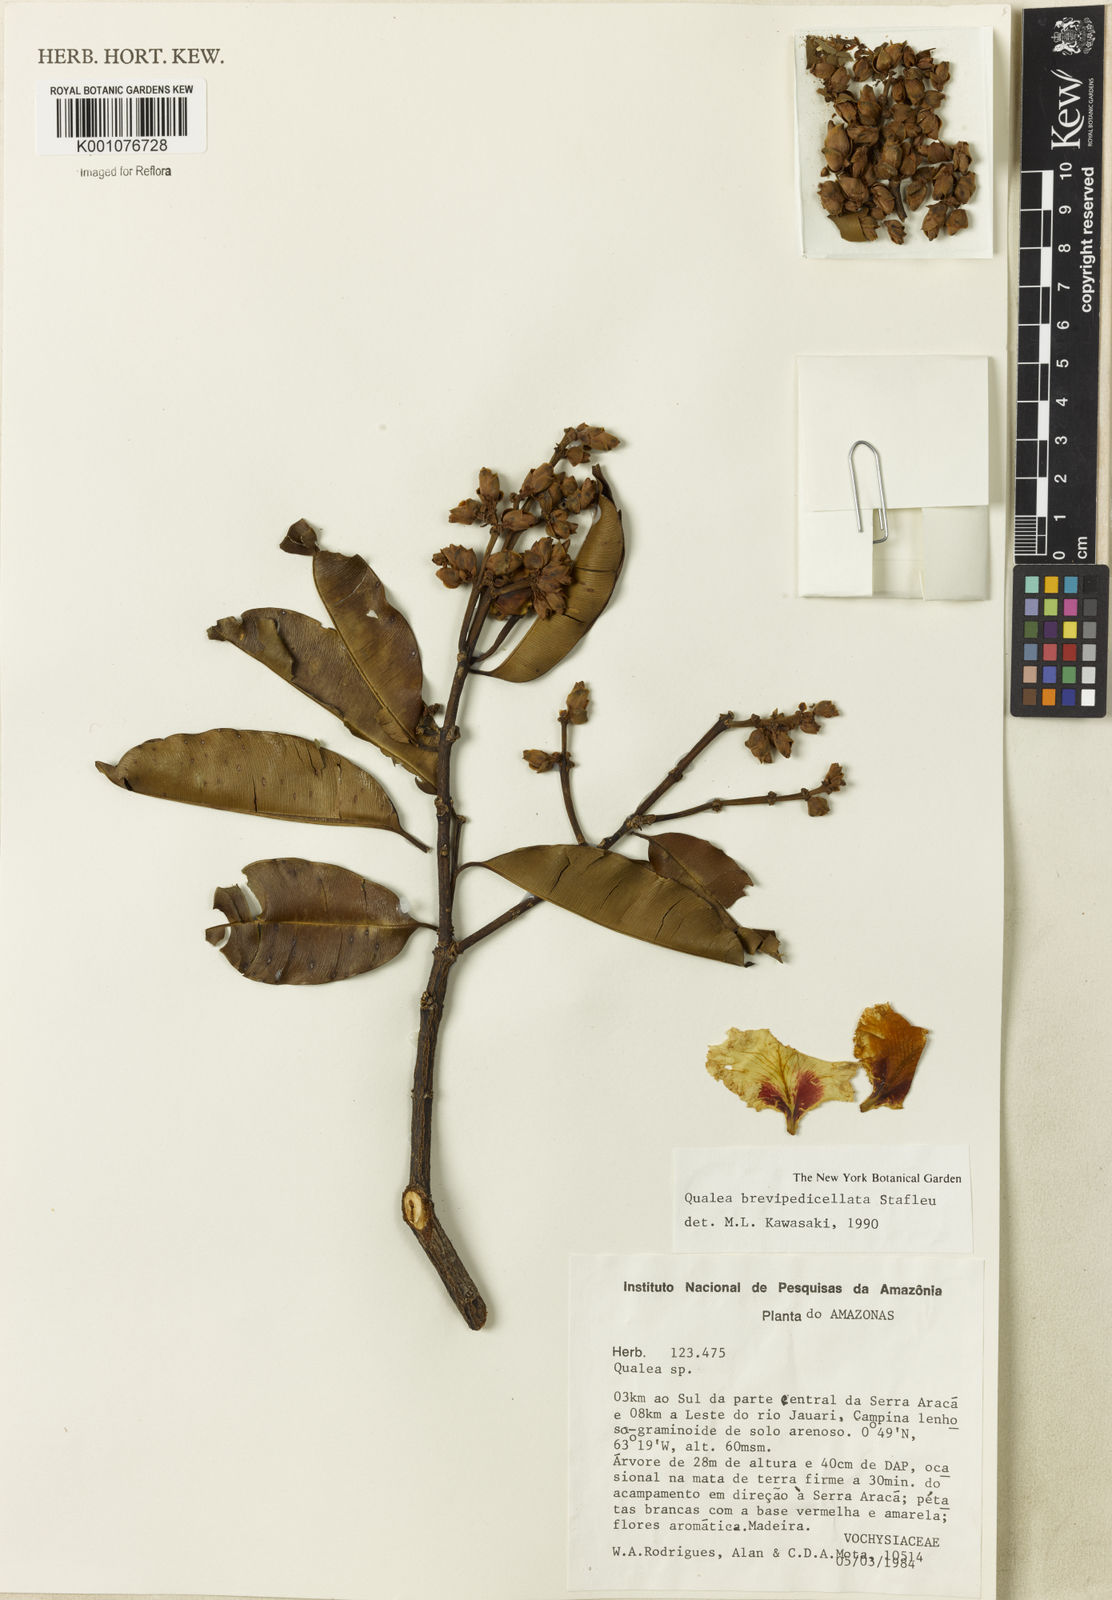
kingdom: Plantae
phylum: Tracheophyta
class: Magnoliopsida
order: Myrtales
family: Vochysiaceae
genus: Qualea
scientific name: Qualea brevipedicellata
